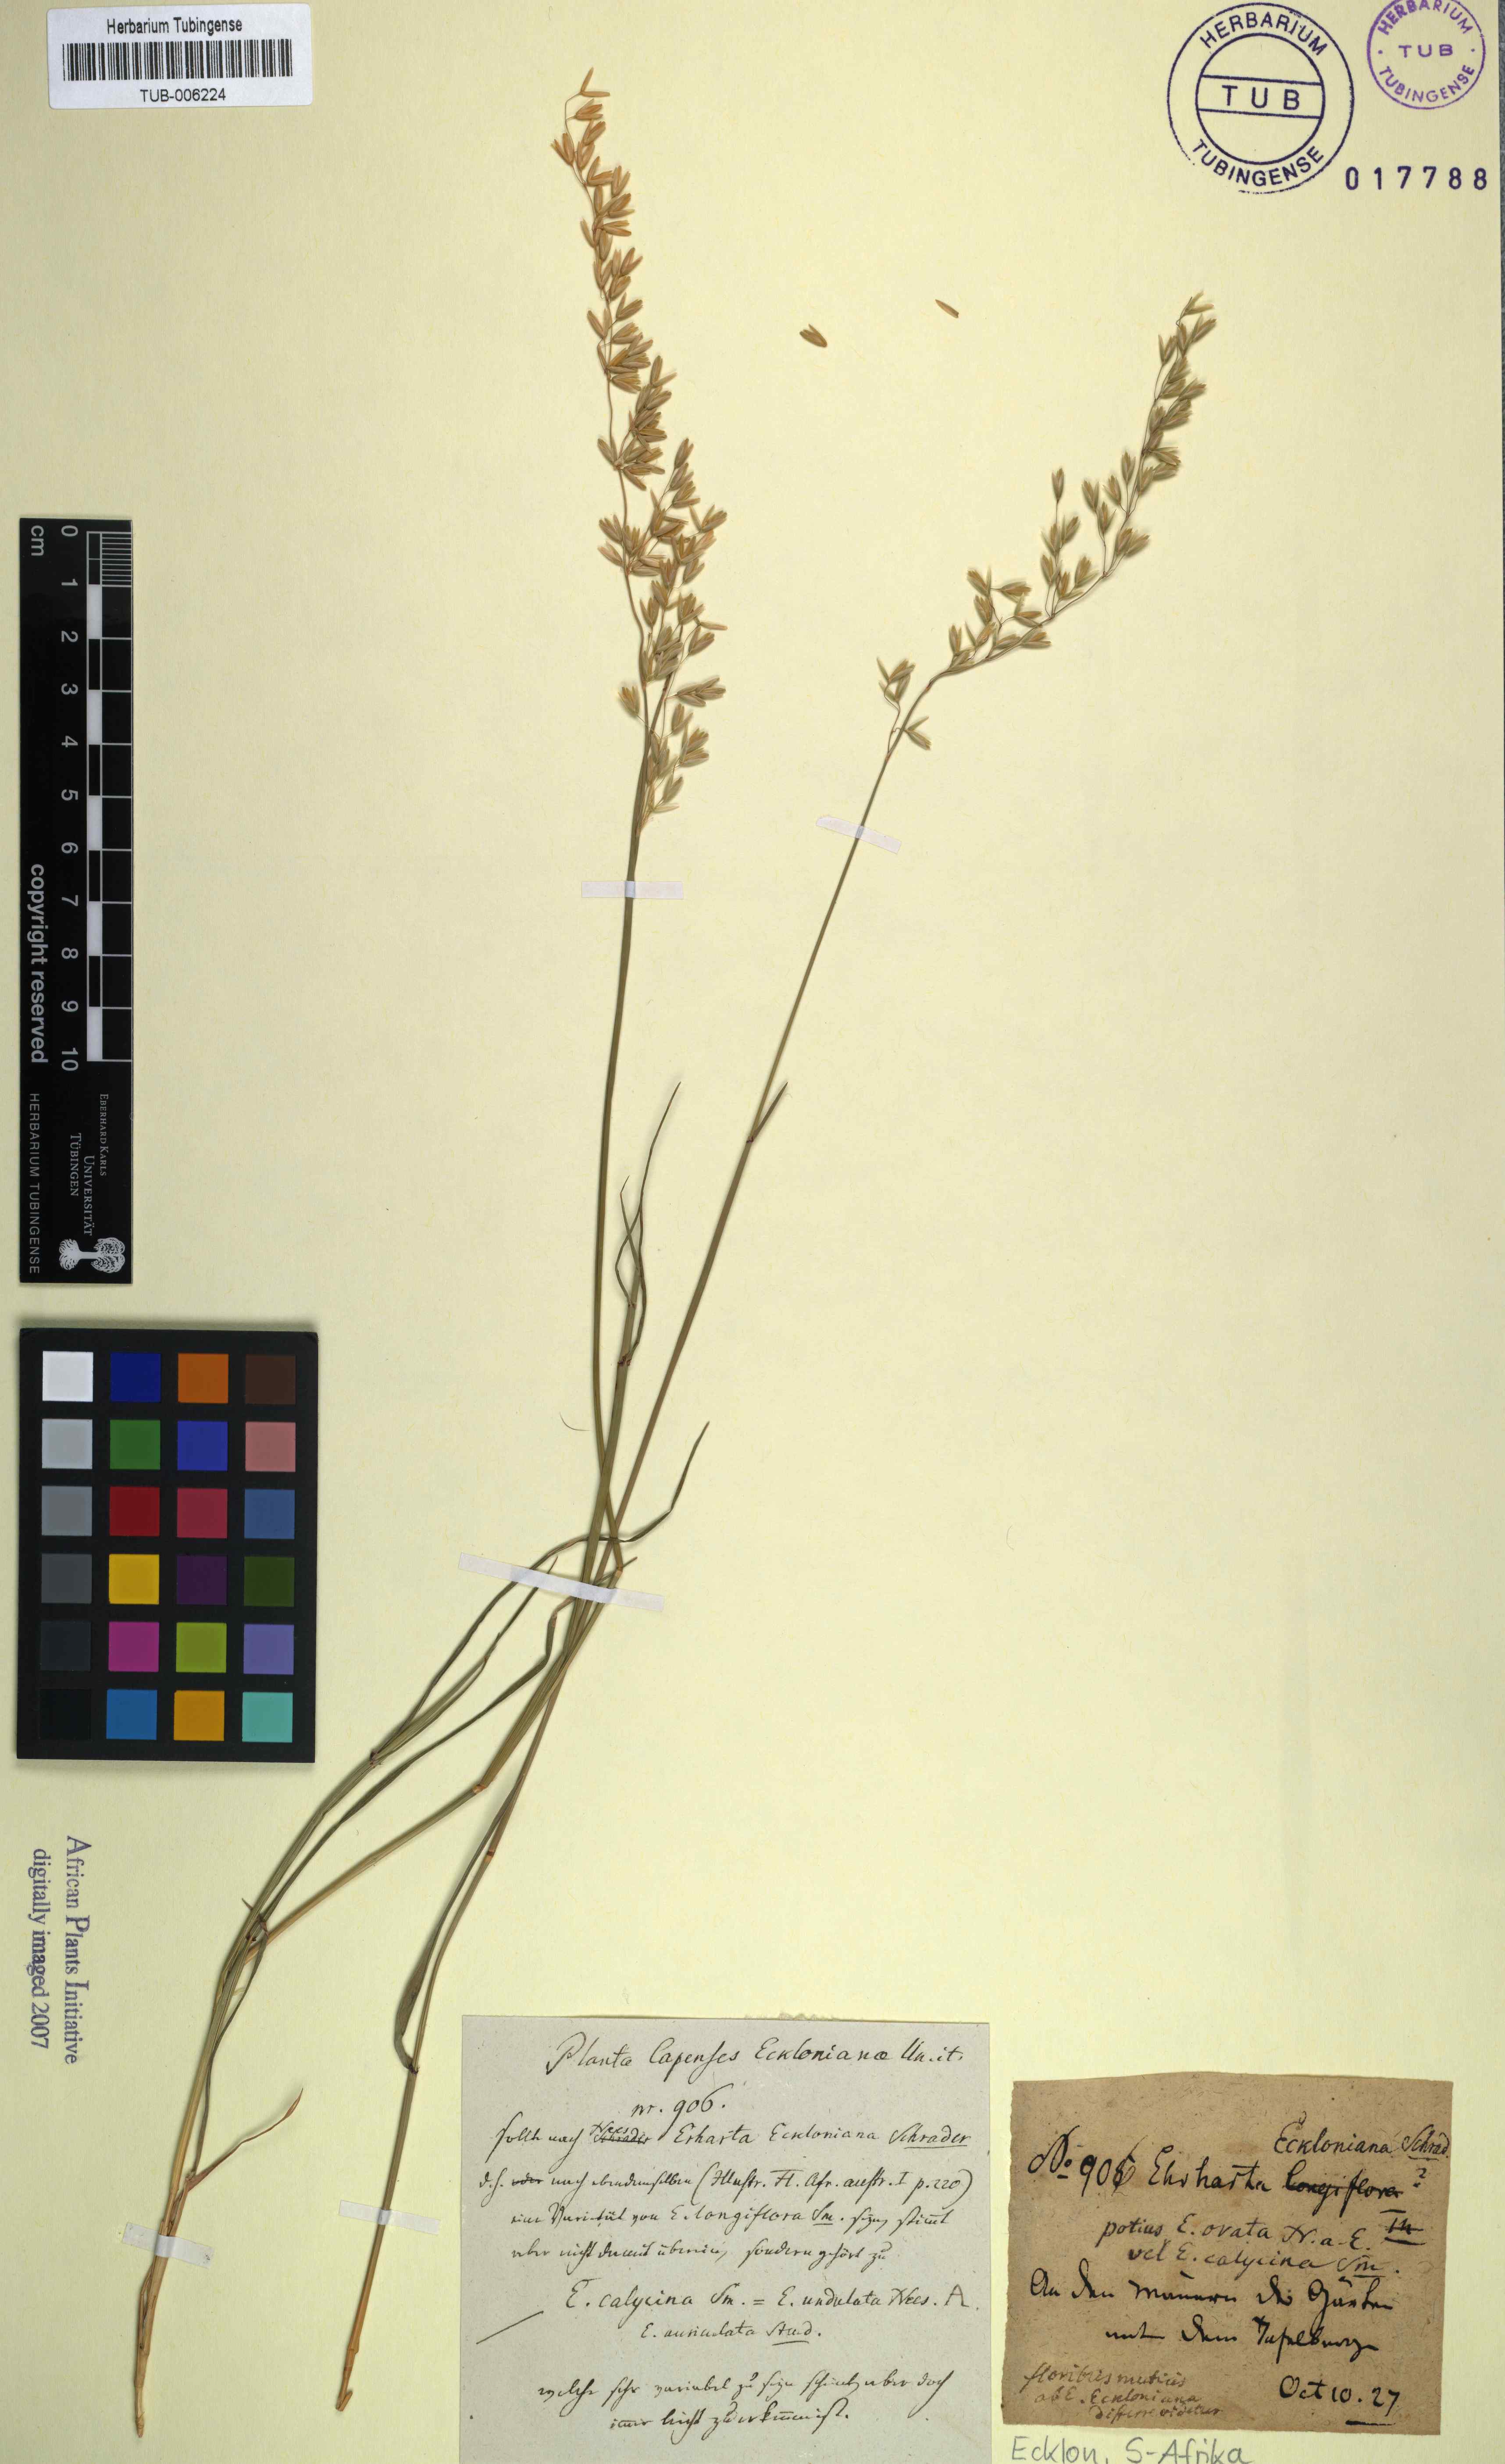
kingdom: Plantae
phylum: Tracheophyta
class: Liliopsida
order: Poales
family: Poaceae
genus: Ehrharta
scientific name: Ehrharta longiflora
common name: Longflowered veldtgrass
